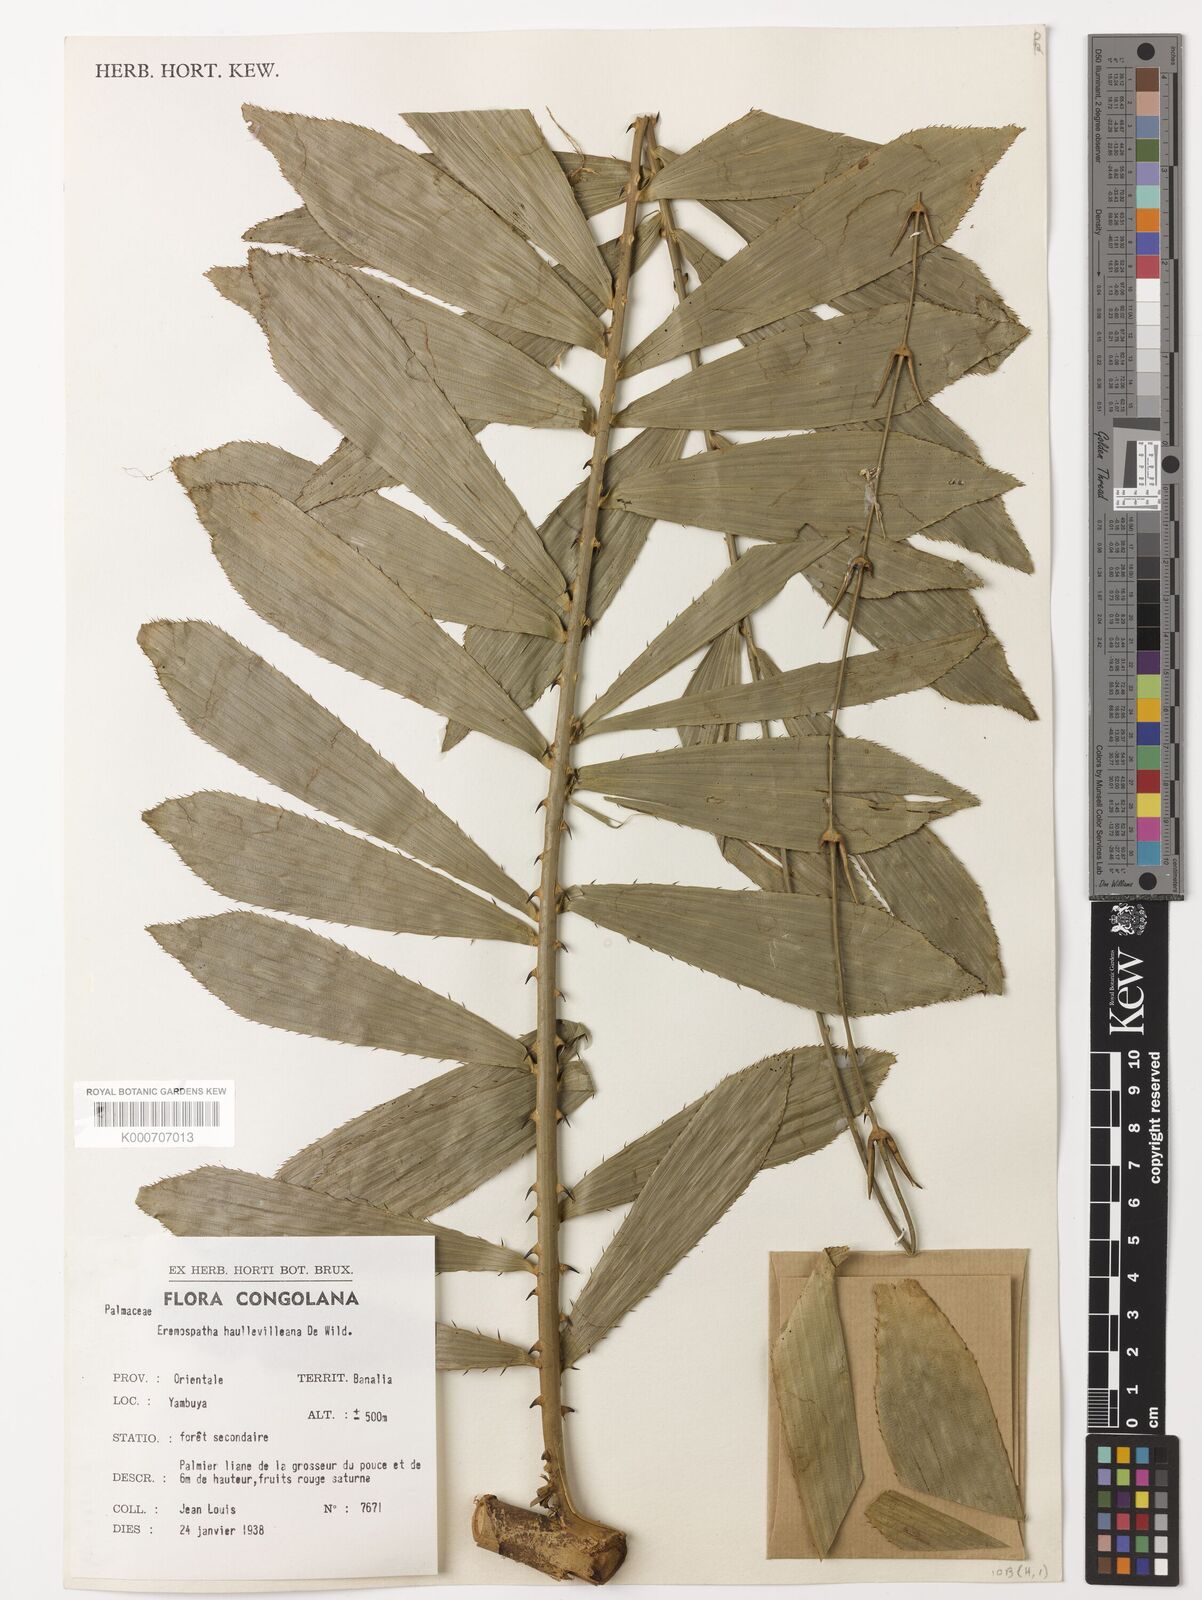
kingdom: Plantae
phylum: Tracheophyta
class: Liliopsida
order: Arecales
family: Arecaceae
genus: Eremospatha
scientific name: Eremospatha haullevilleana
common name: Rattan
